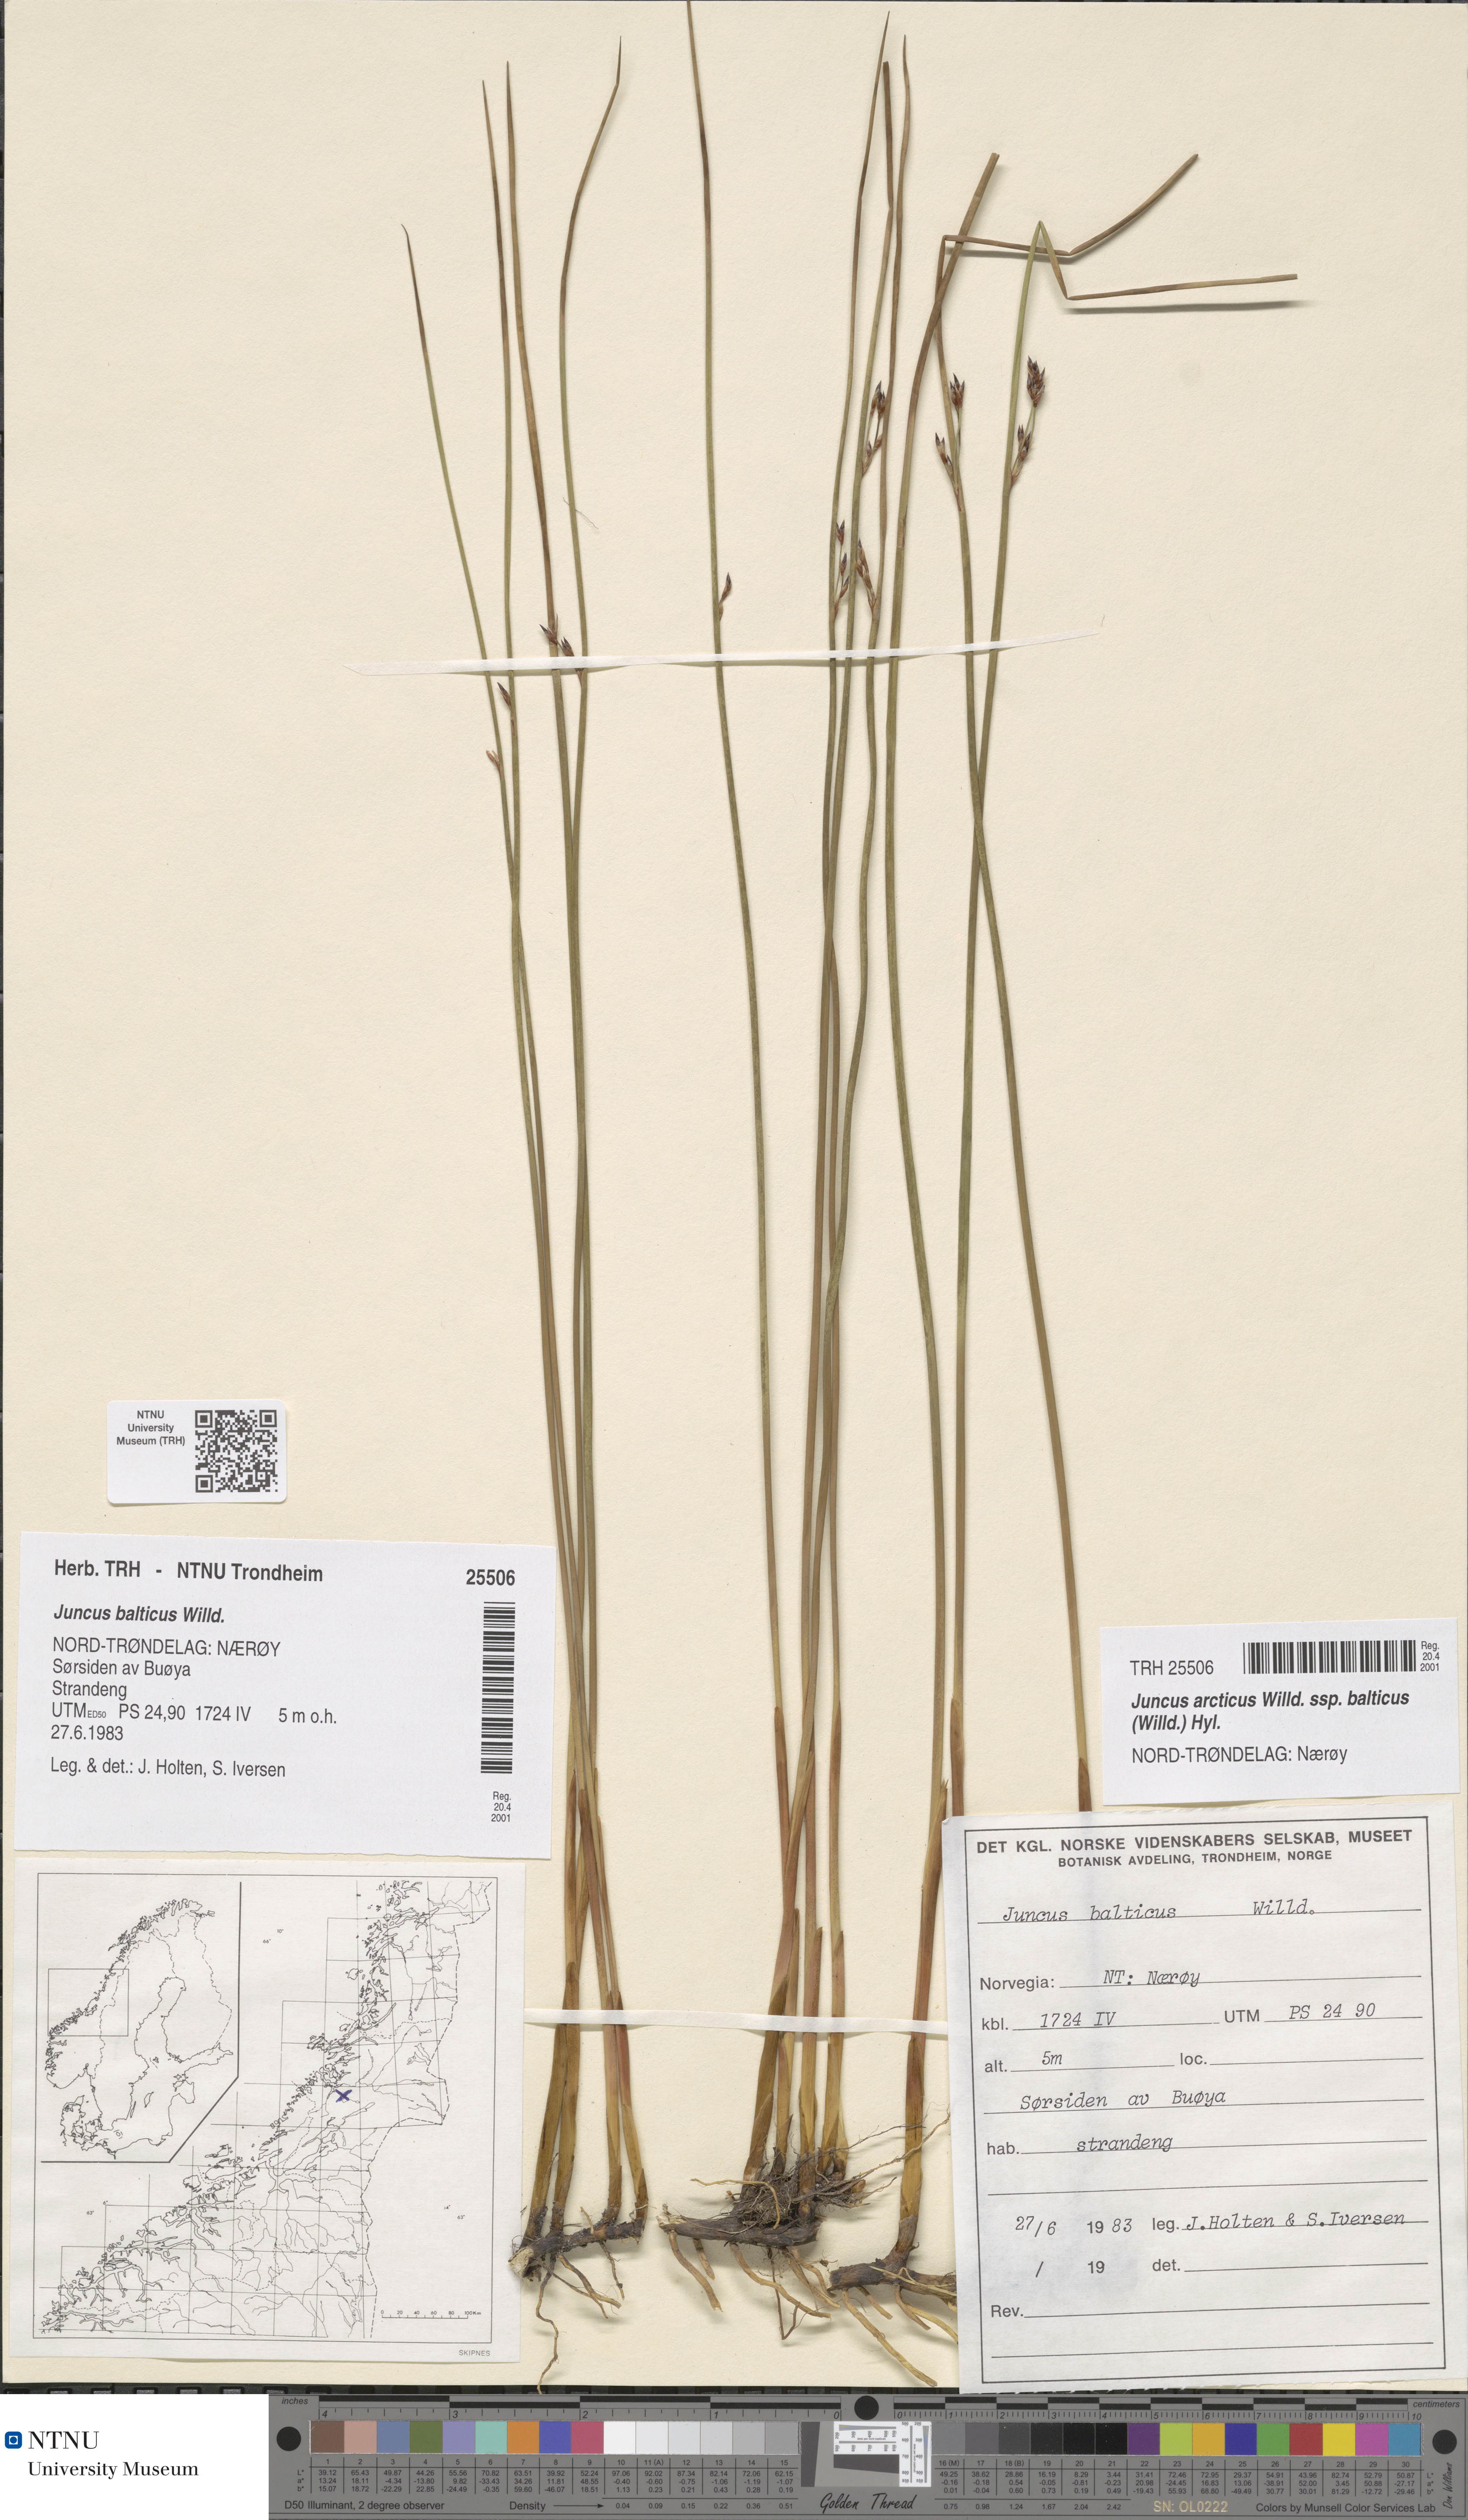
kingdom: Plantae
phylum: Tracheophyta
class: Liliopsida
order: Poales
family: Juncaceae
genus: Juncus
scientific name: Juncus balticus
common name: Baltic rush
